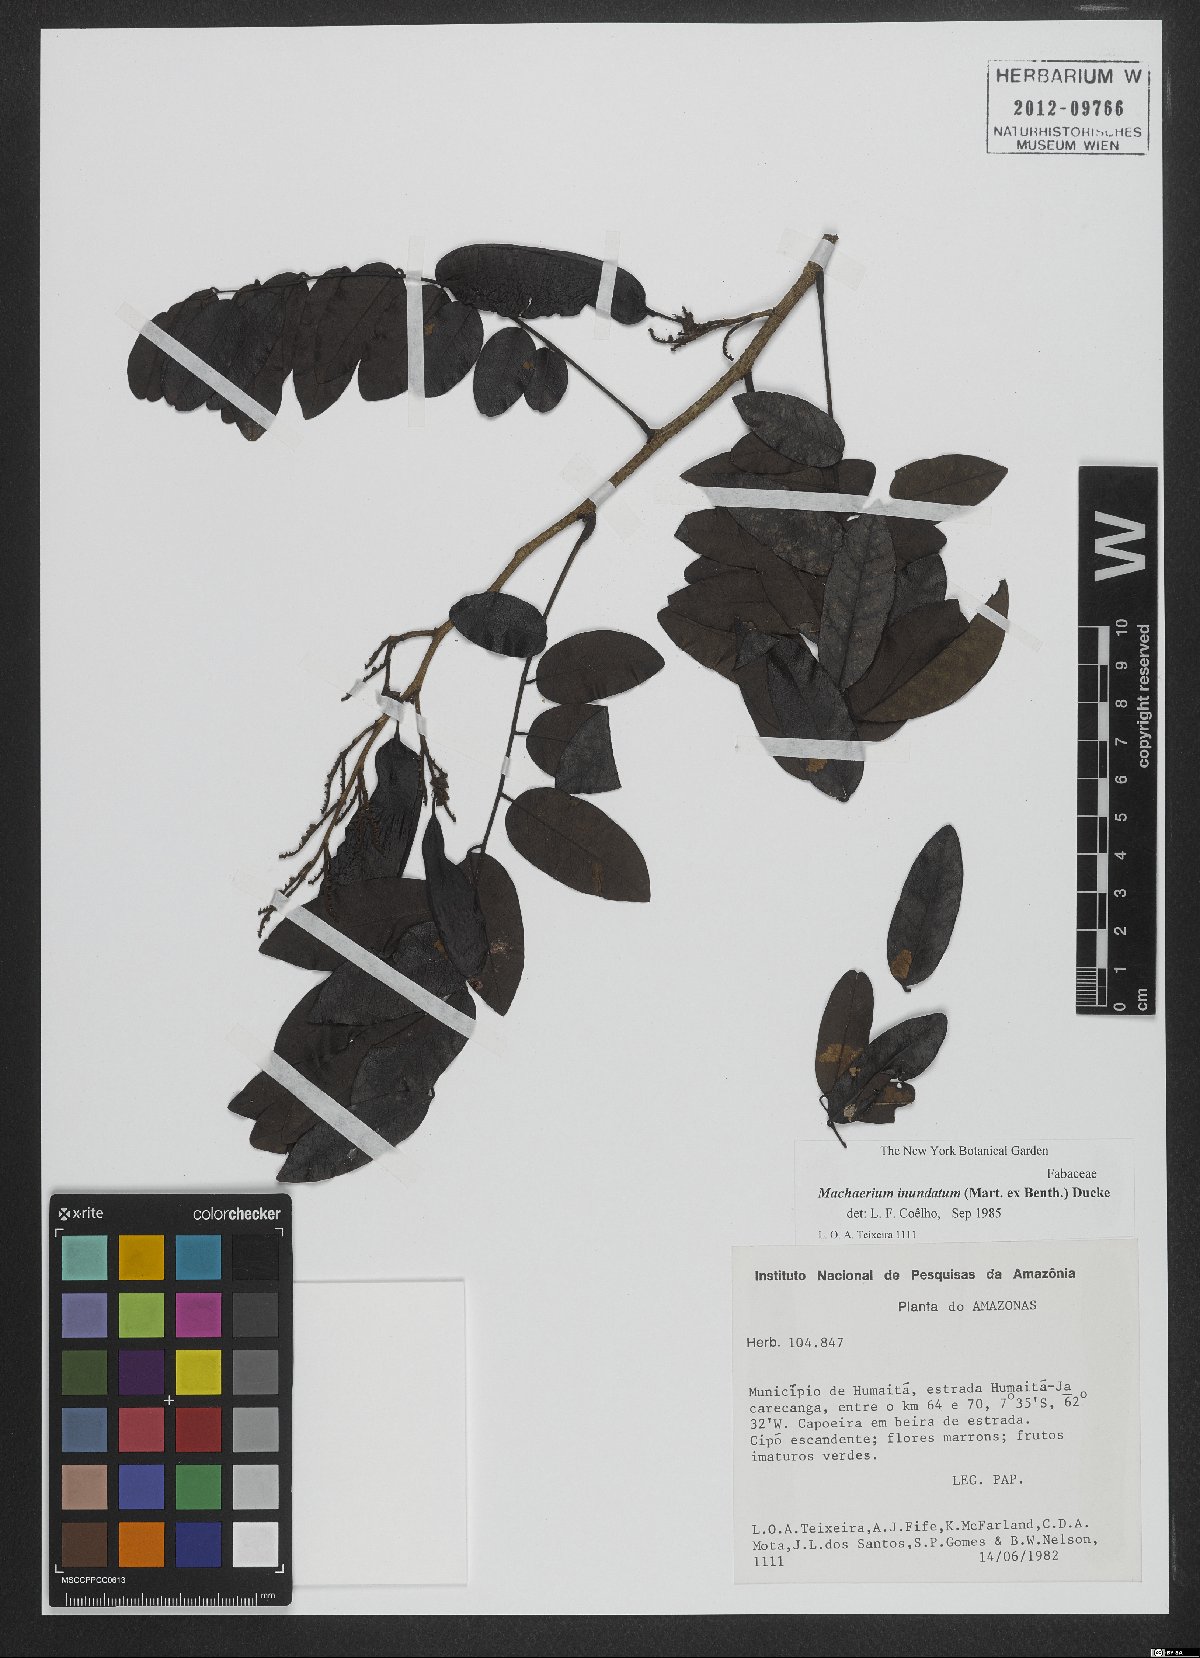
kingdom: Plantae
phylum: Tracheophyta
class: Magnoliopsida
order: Fabales
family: Fabaceae
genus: Machaerium
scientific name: Machaerium inundatum
